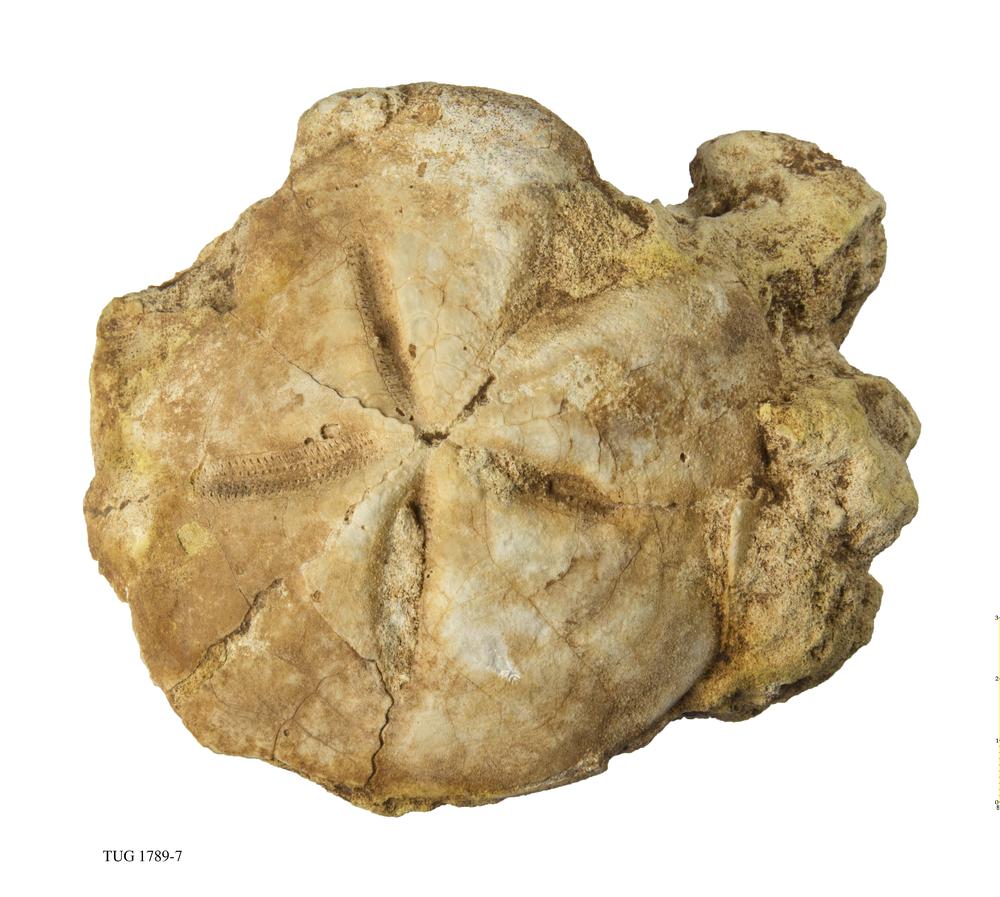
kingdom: Animalia
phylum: Echinodermata
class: Echinoidea
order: Clypeasteroida
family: Clypeasteridae
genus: Clypeaster
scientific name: Clypeaster
